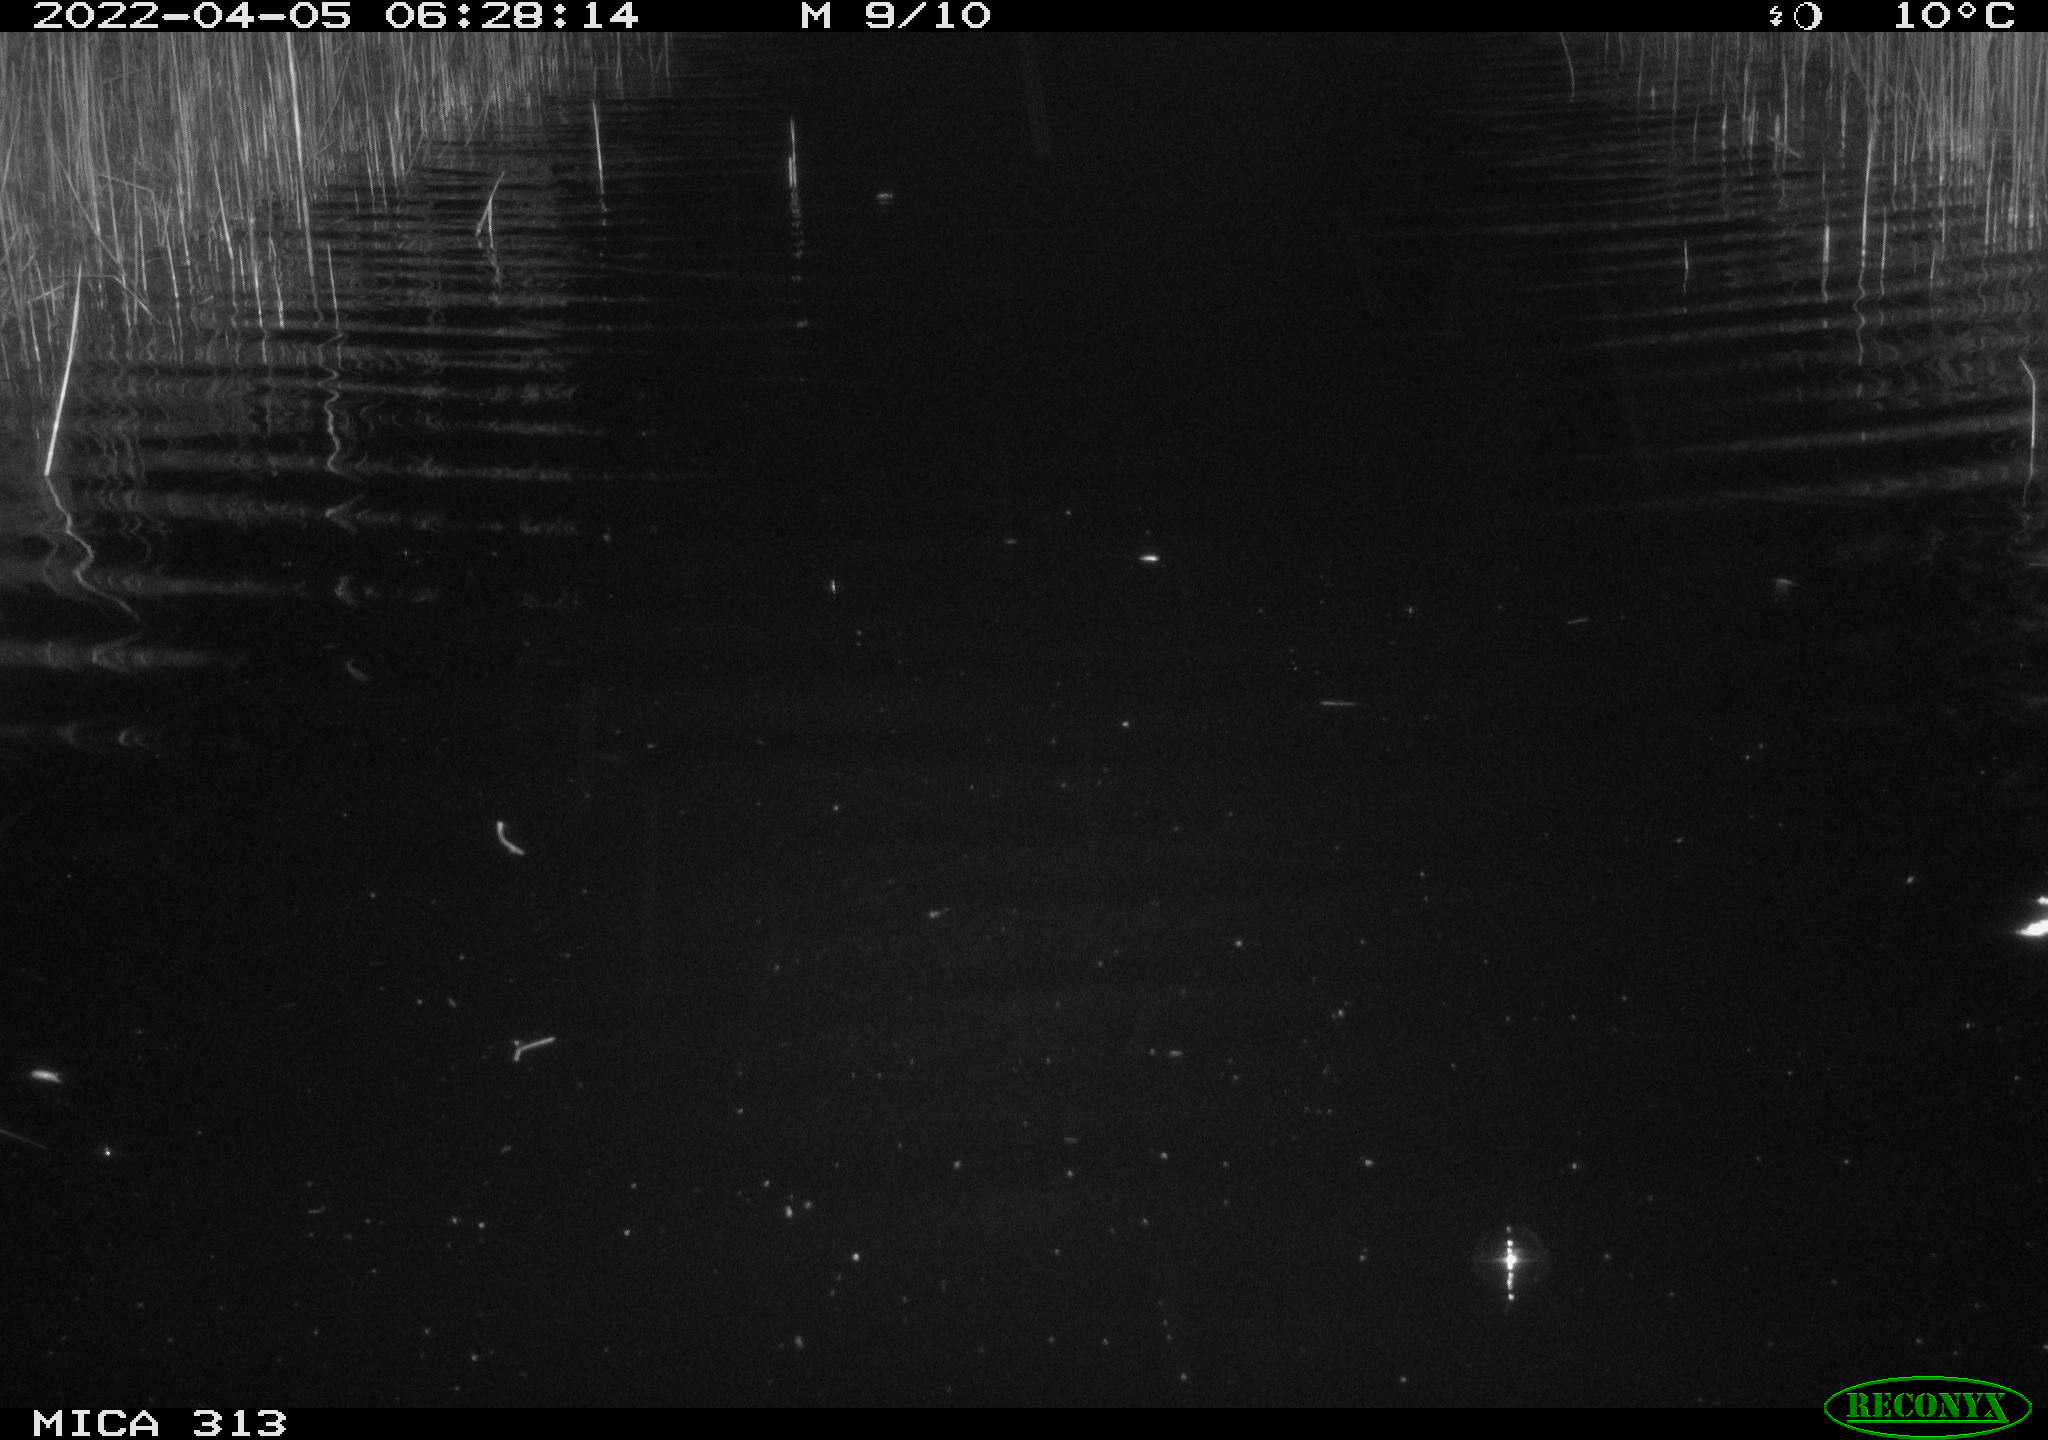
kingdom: Animalia
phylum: Chordata
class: Aves
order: Gruiformes
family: Rallidae
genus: Gallinula
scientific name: Gallinula chloropus
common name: Common moorhen
